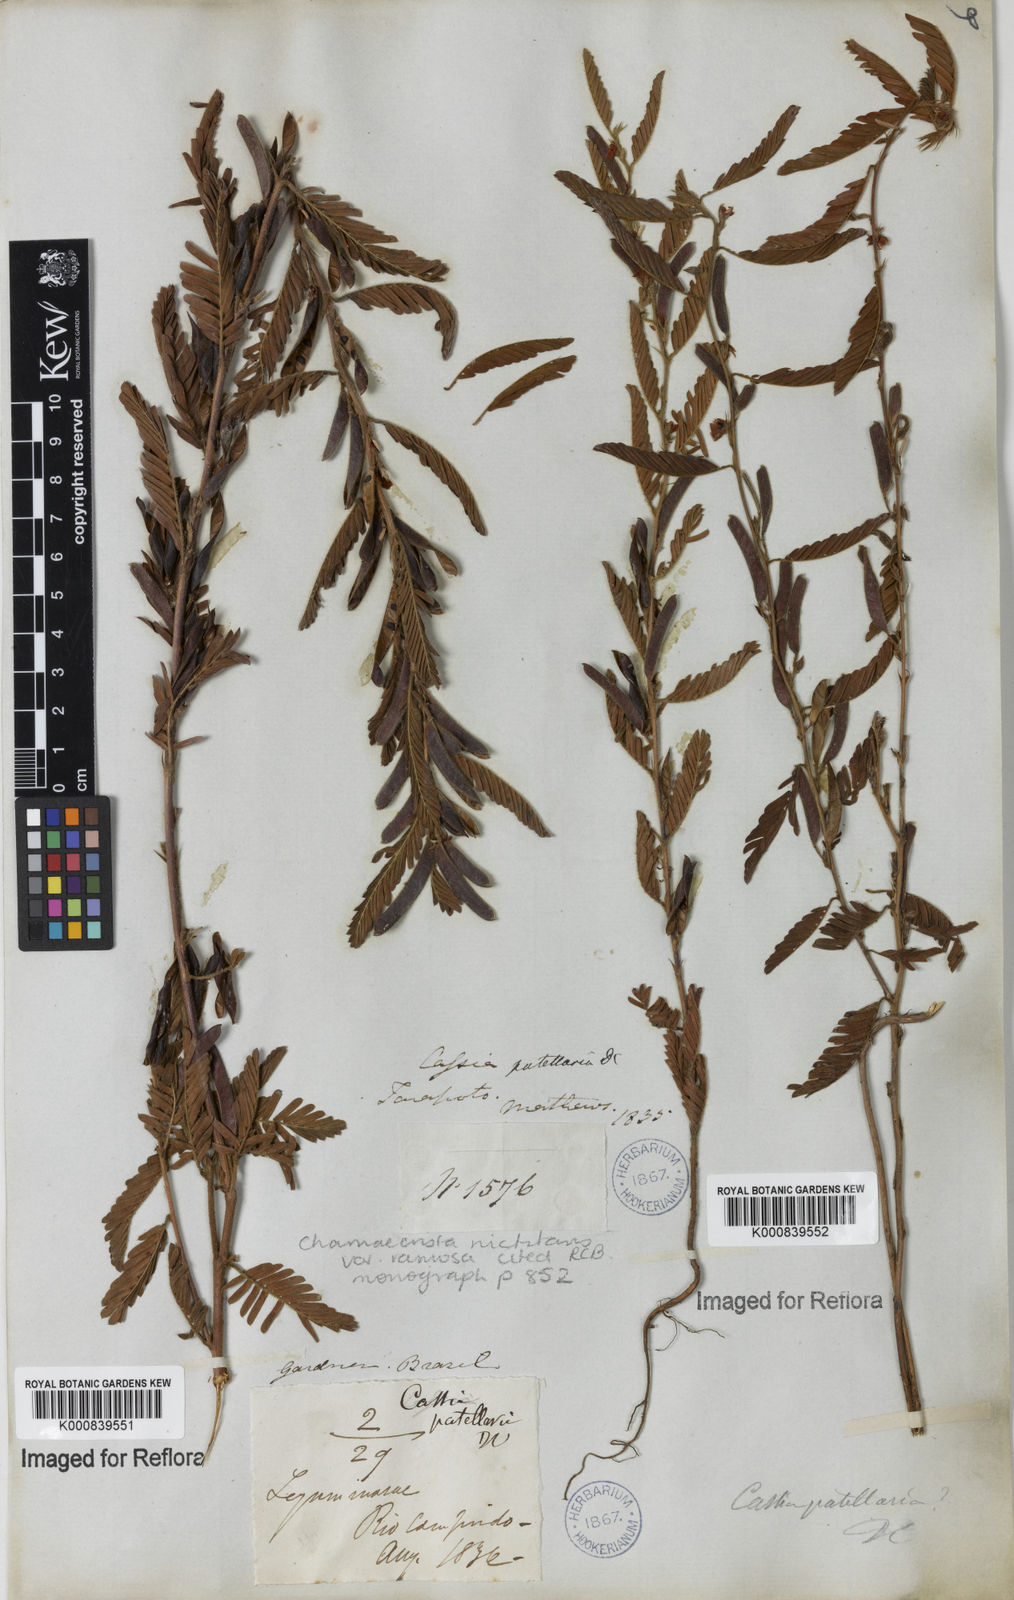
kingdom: Plantae
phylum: Tracheophyta
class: Magnoliopsida
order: Fabales
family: Fabaceae
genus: Chamaecrista
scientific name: Chamaecrista nictitans
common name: Sensitive cassia
